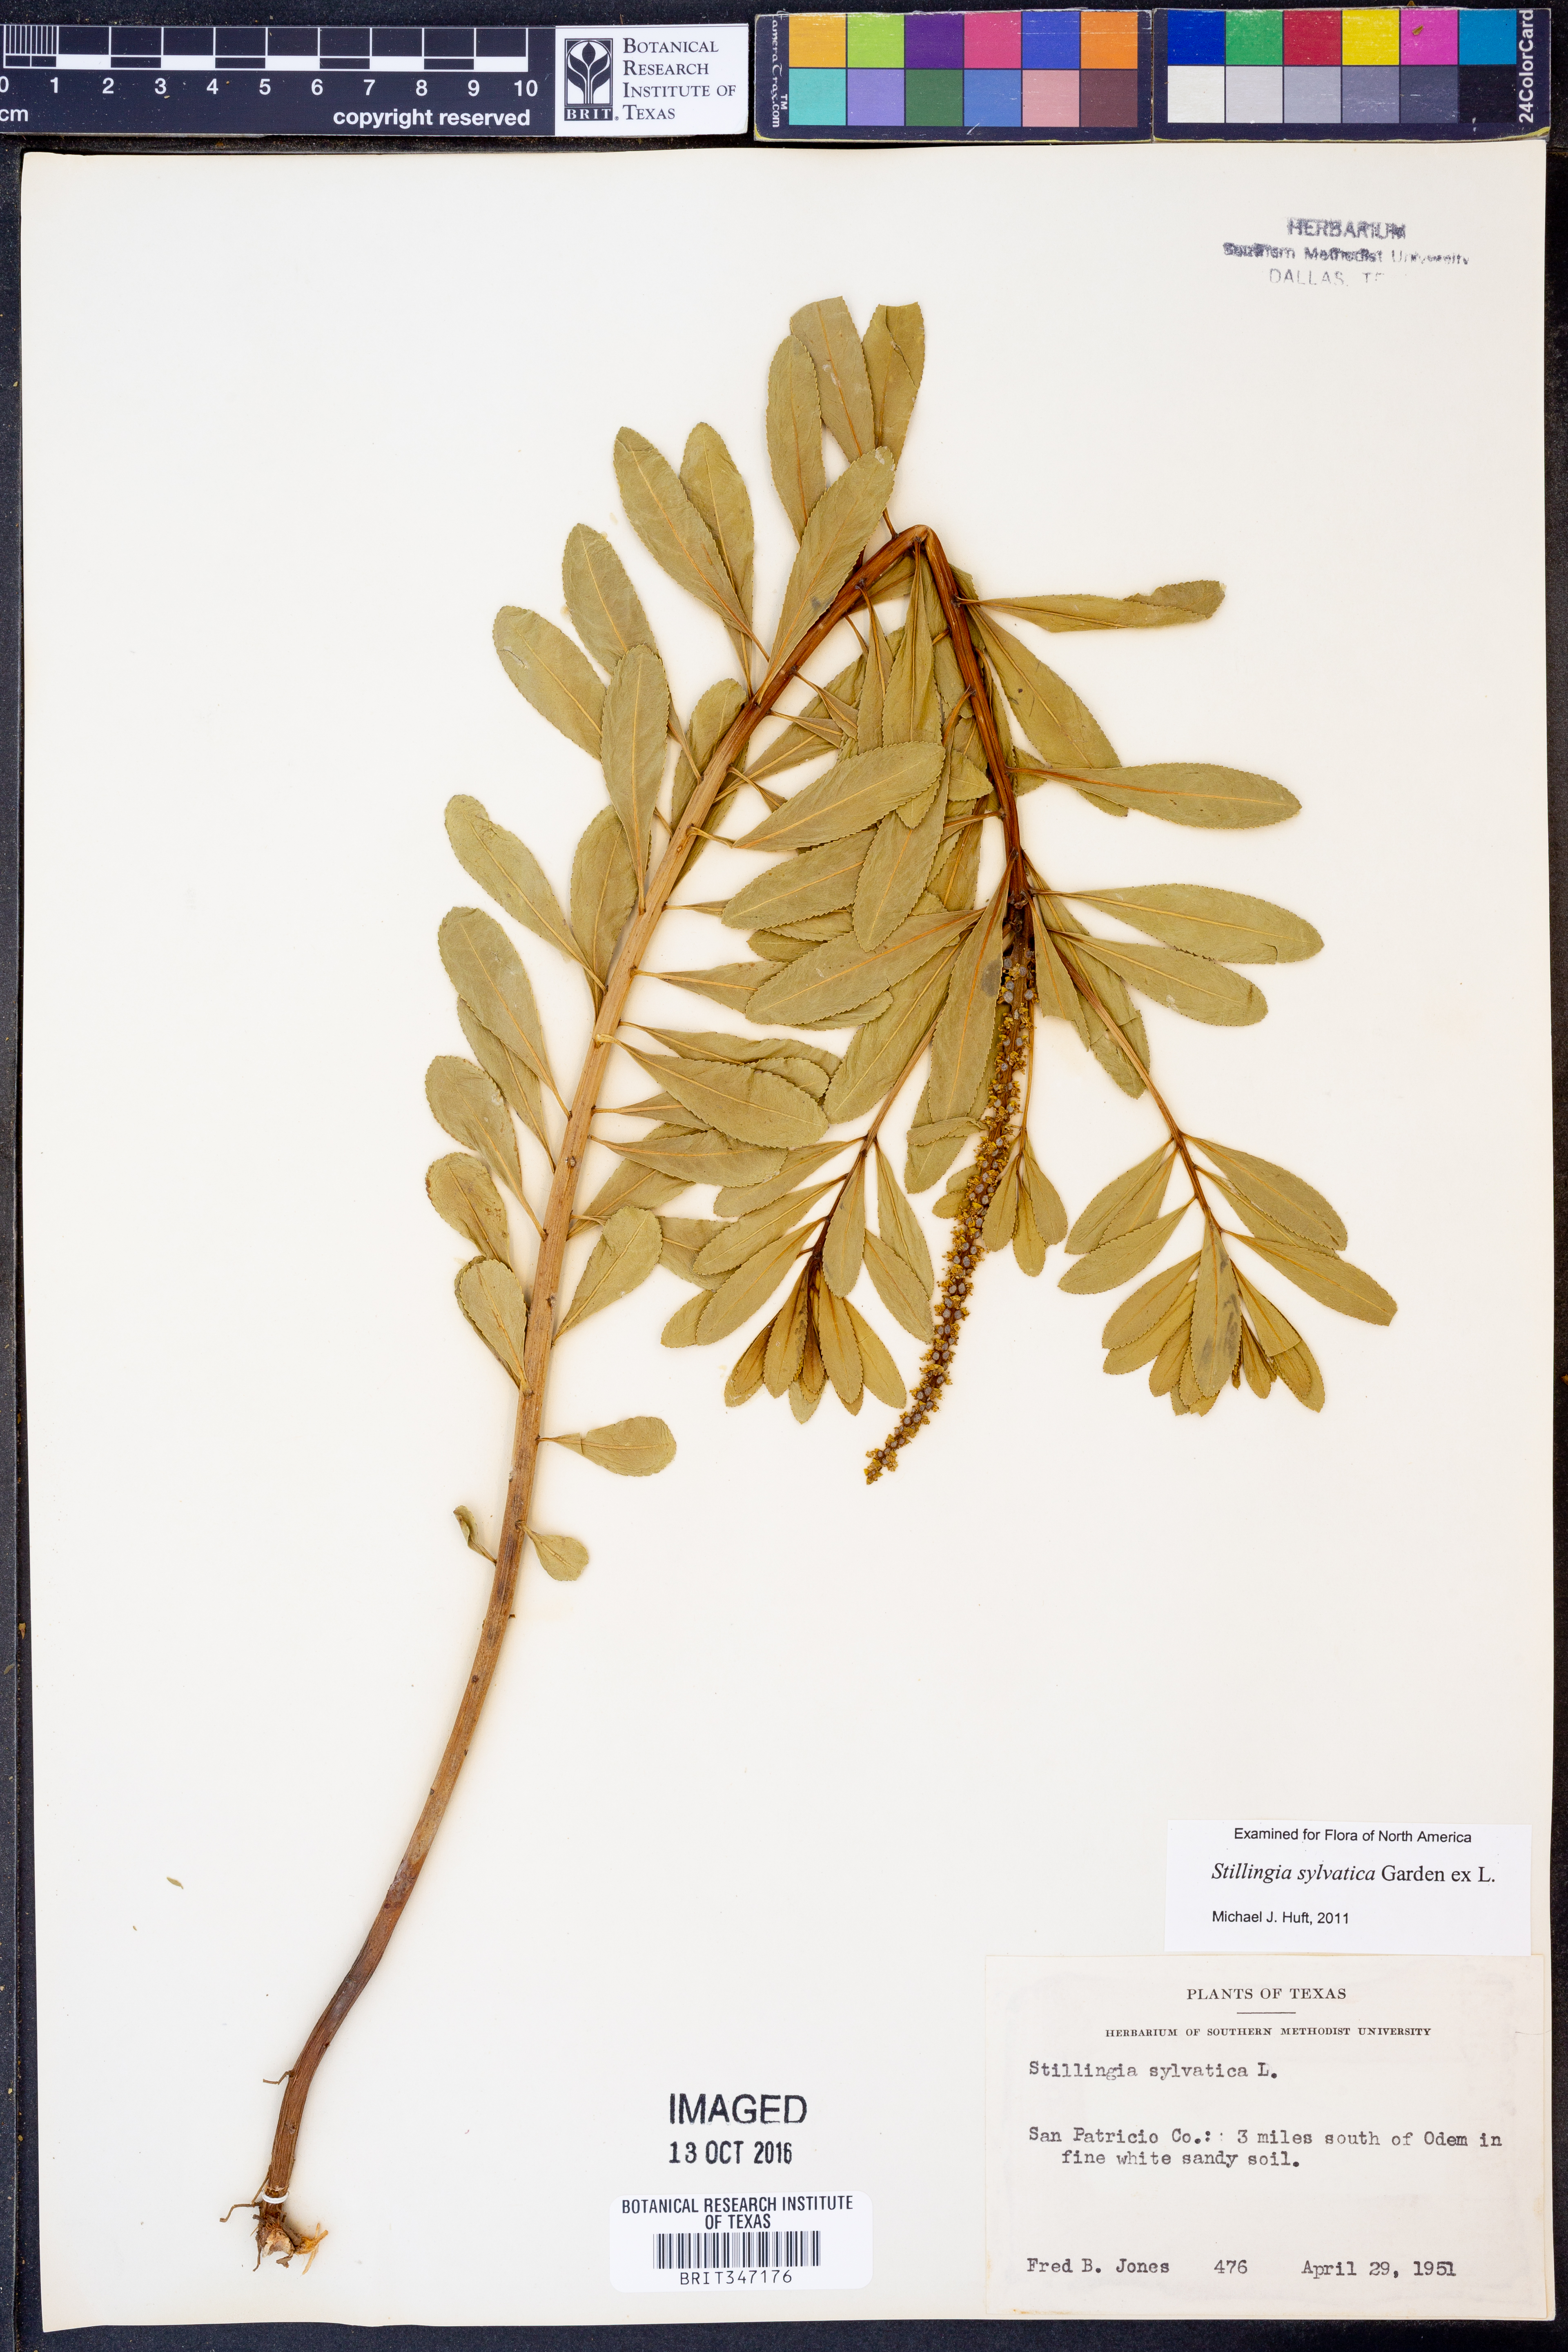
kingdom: Plantae
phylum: Tracheophyta
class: Magnoliopsida
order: Malpighiales
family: Euphorbiaceae
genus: Stillingia
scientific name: Stillingia sylvatica
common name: Queen's-delight
